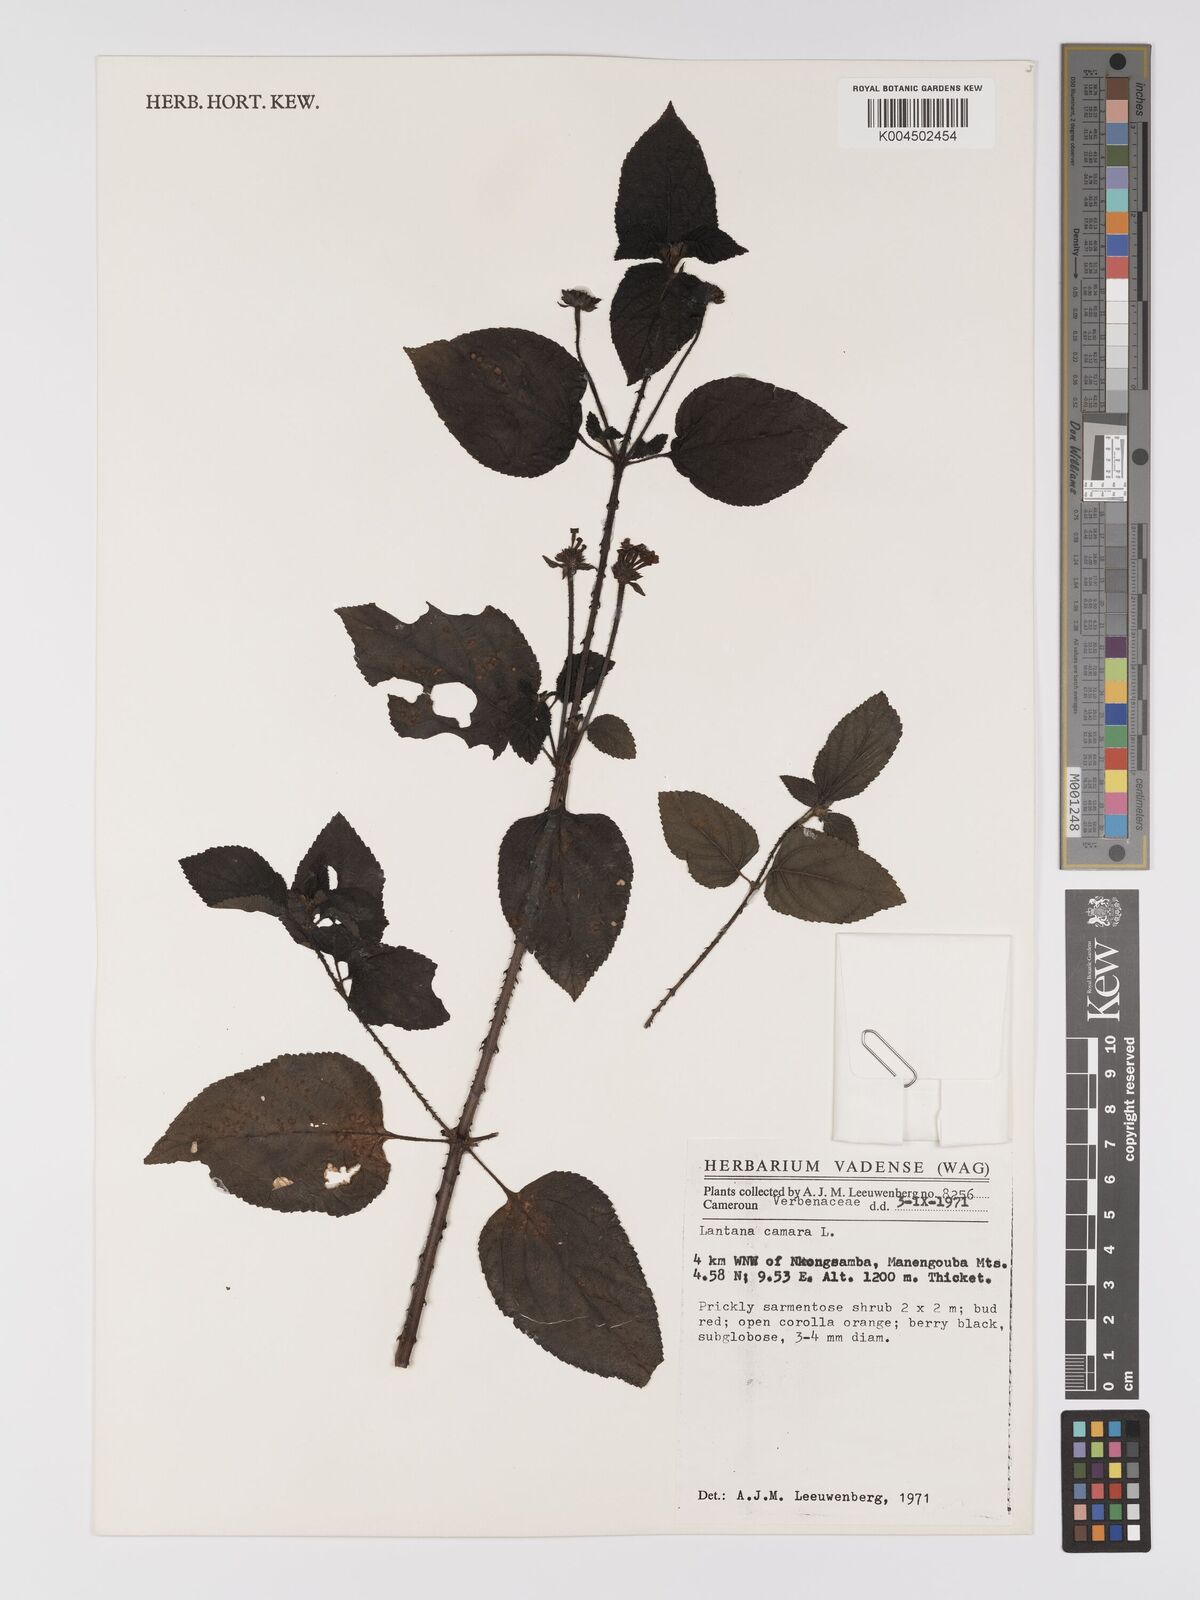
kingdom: Plantae
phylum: Tracheophyta
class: Magnoliopsida
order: Lamiales
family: Verbenaceae
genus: Lantana
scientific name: Lantana camara
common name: Lantana
